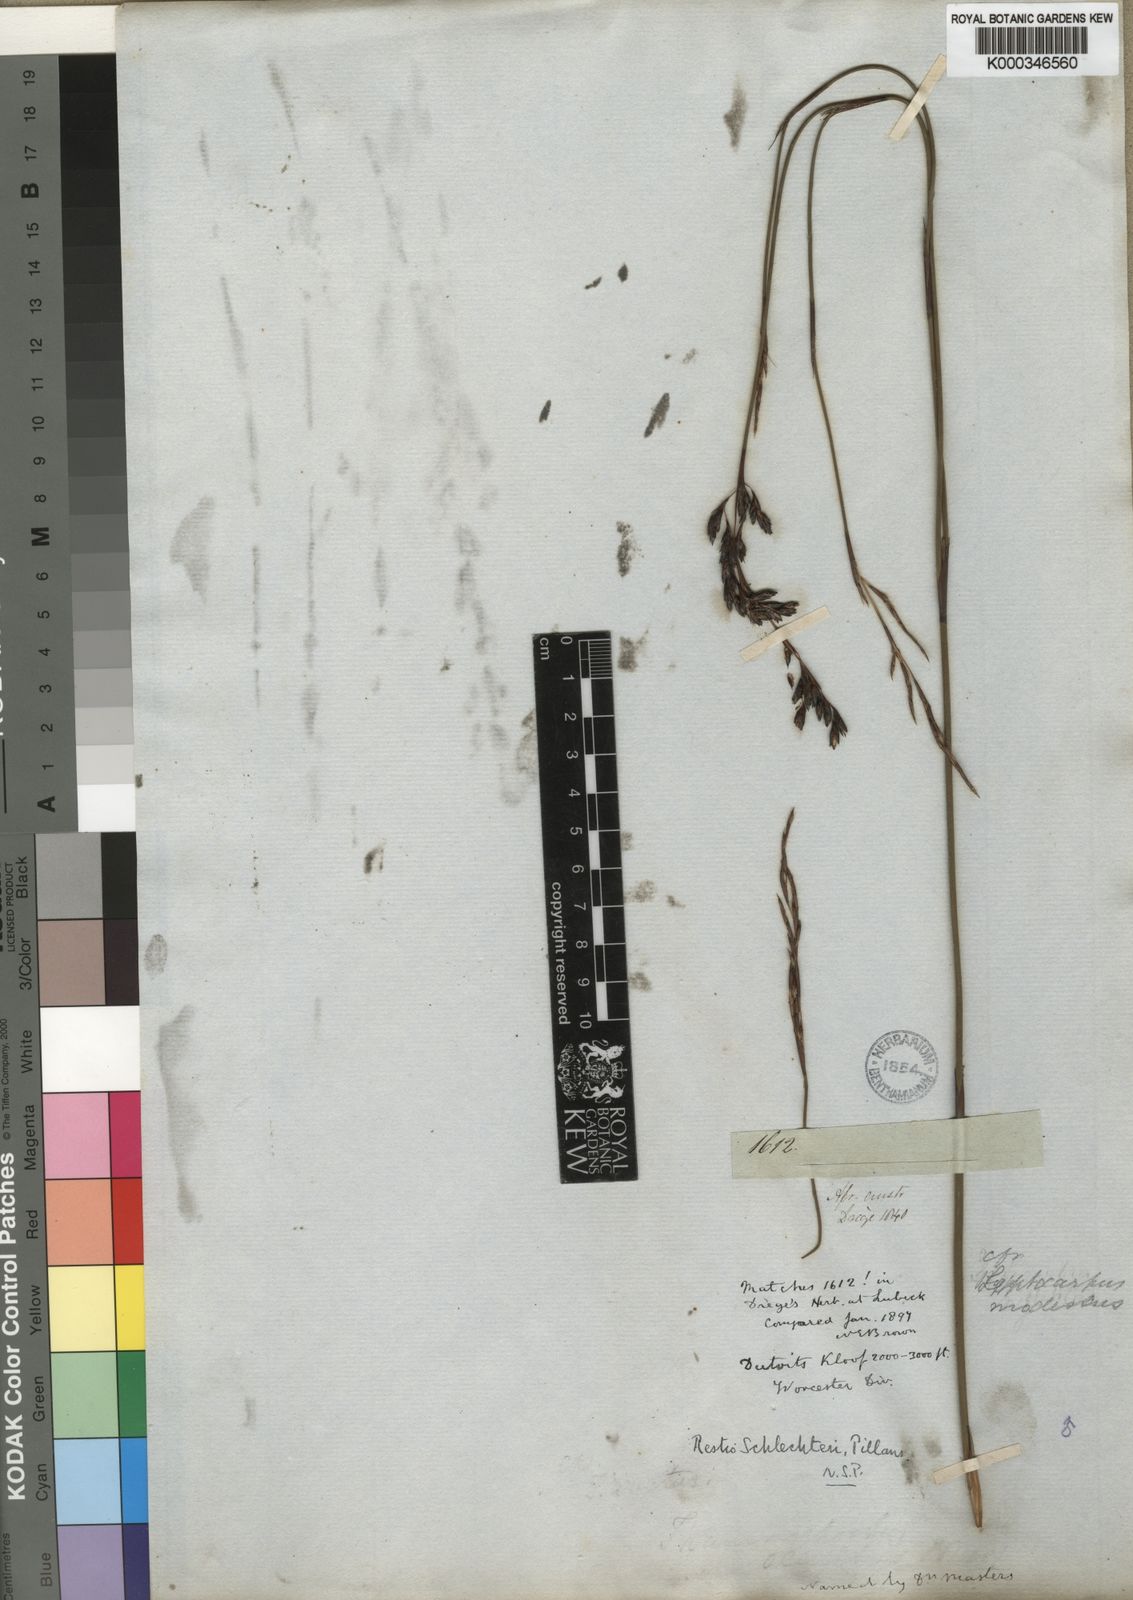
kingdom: Plantae
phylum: Tracheophyta
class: Liliopsida
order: Poales
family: Restionaceae
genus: Restio
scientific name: Restio occultus
